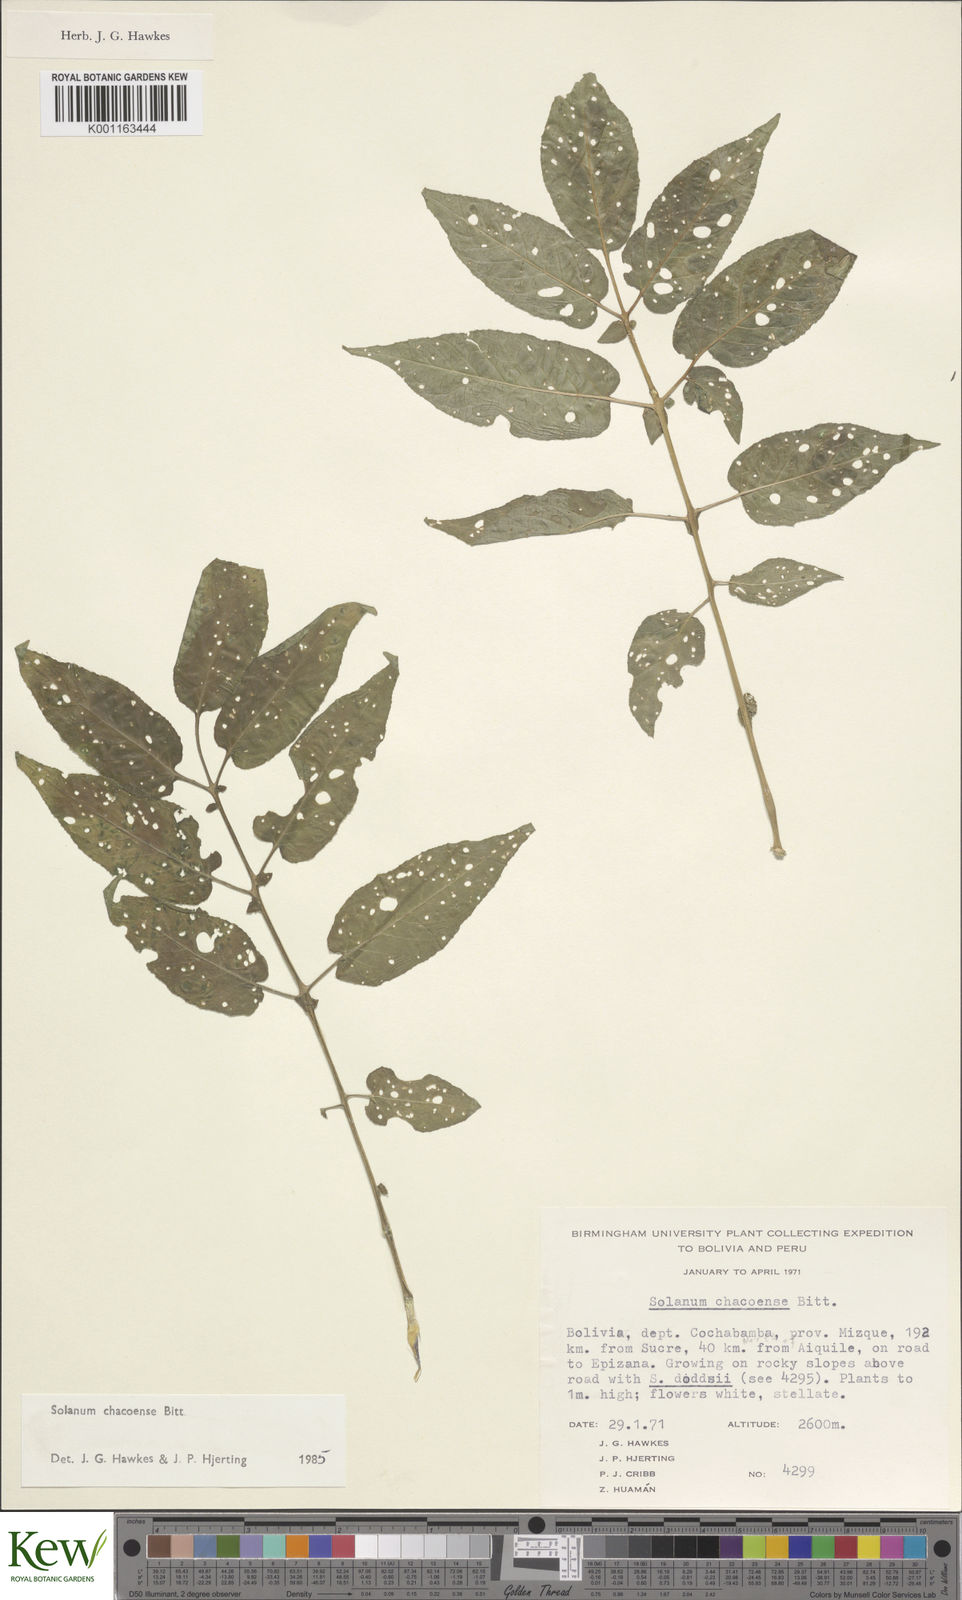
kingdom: Plantae
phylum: Tracheophyta
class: Magnoliopsida
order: Solanales
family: Solanaceae
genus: Solanum
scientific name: Solanum chacoense
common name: Chaco potato
